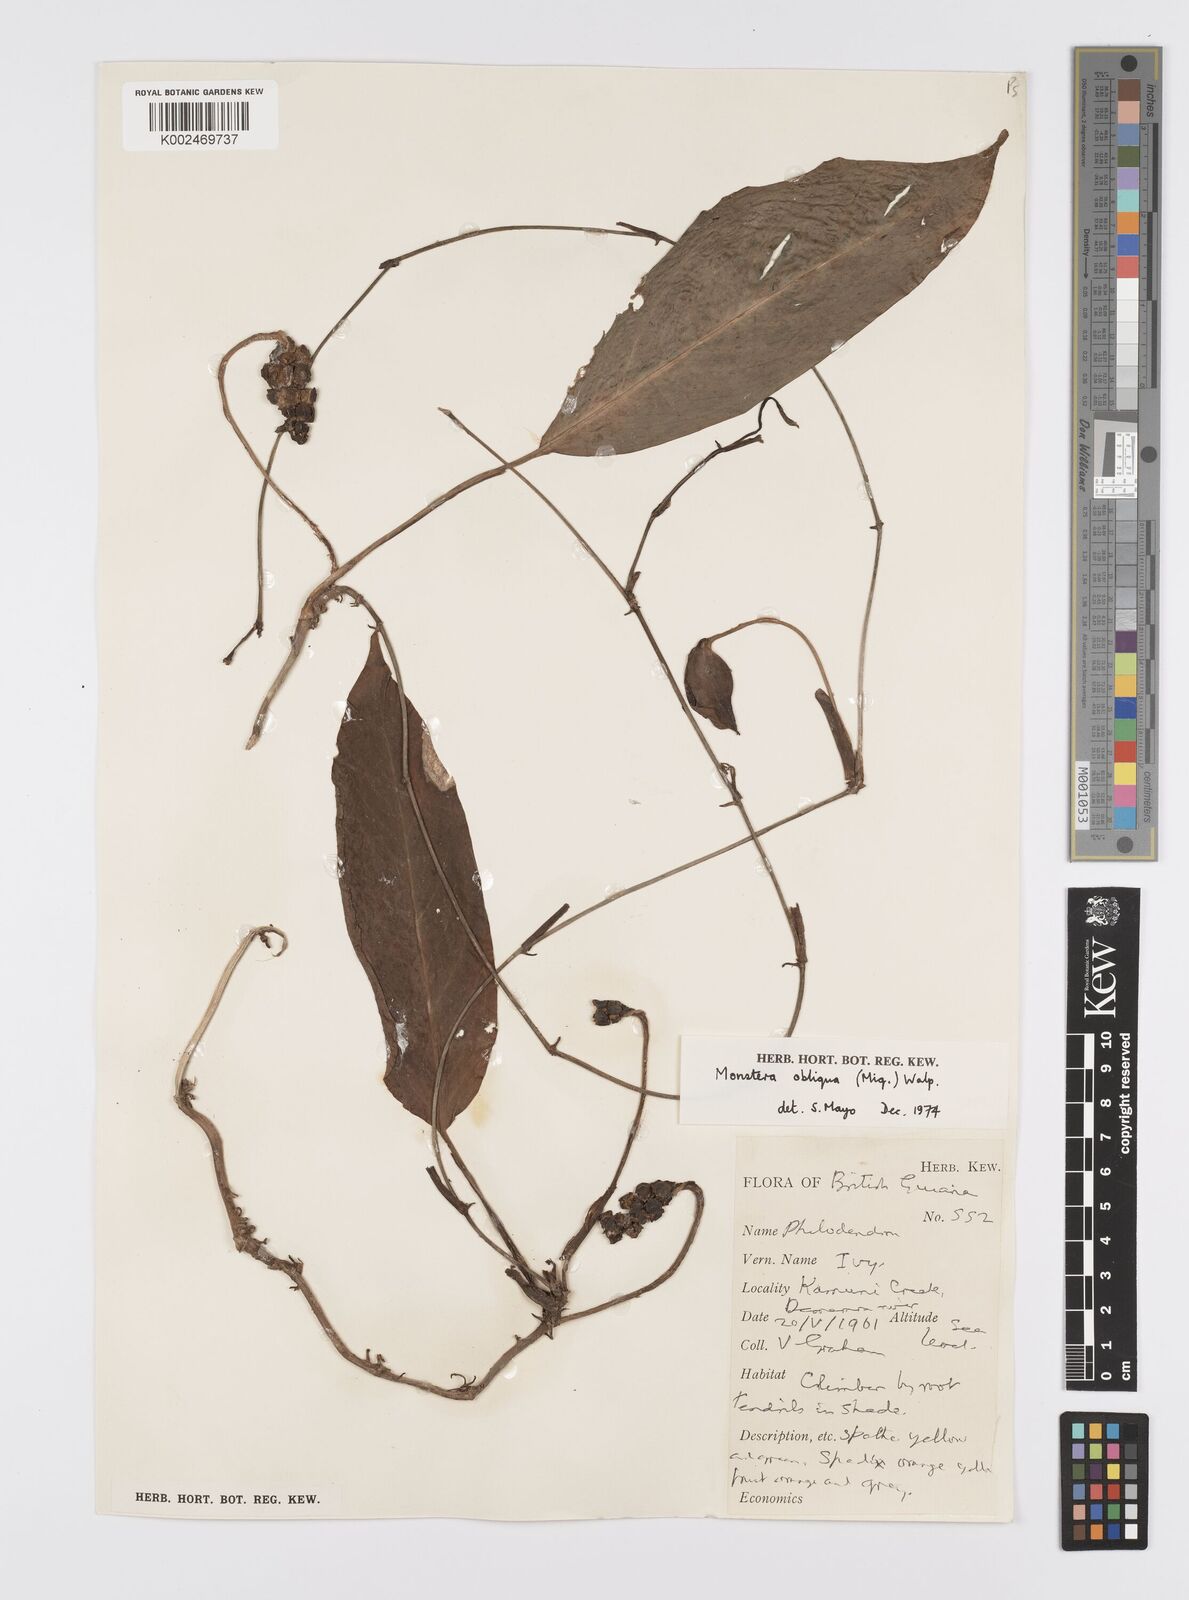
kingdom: Plantae
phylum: Tracheophyta
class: Liliopsida
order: Alismatales
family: Araceae
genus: Monstera
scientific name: Monstera obliqua
